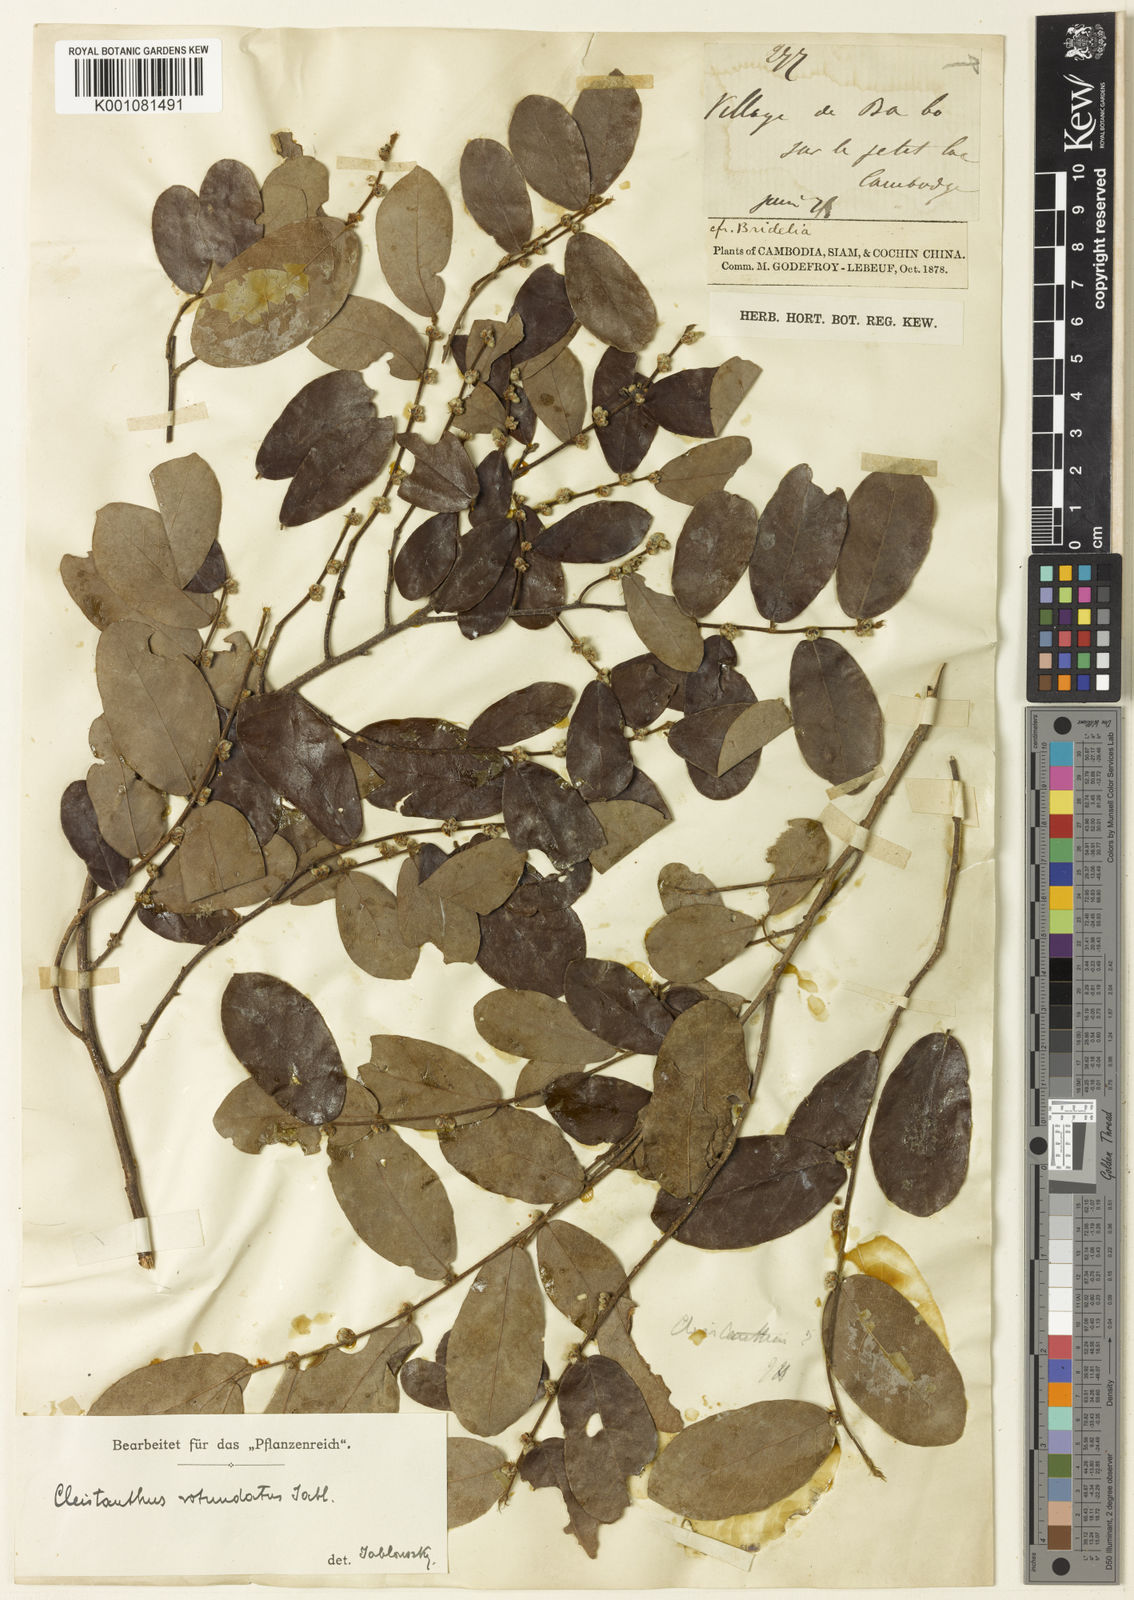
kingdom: Plantae
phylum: Tracheophyta
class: Magnoliopsida
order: Malpighiales
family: Phyllanthaceae
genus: Cleistanthus
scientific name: Cleistanthus rotundatus
